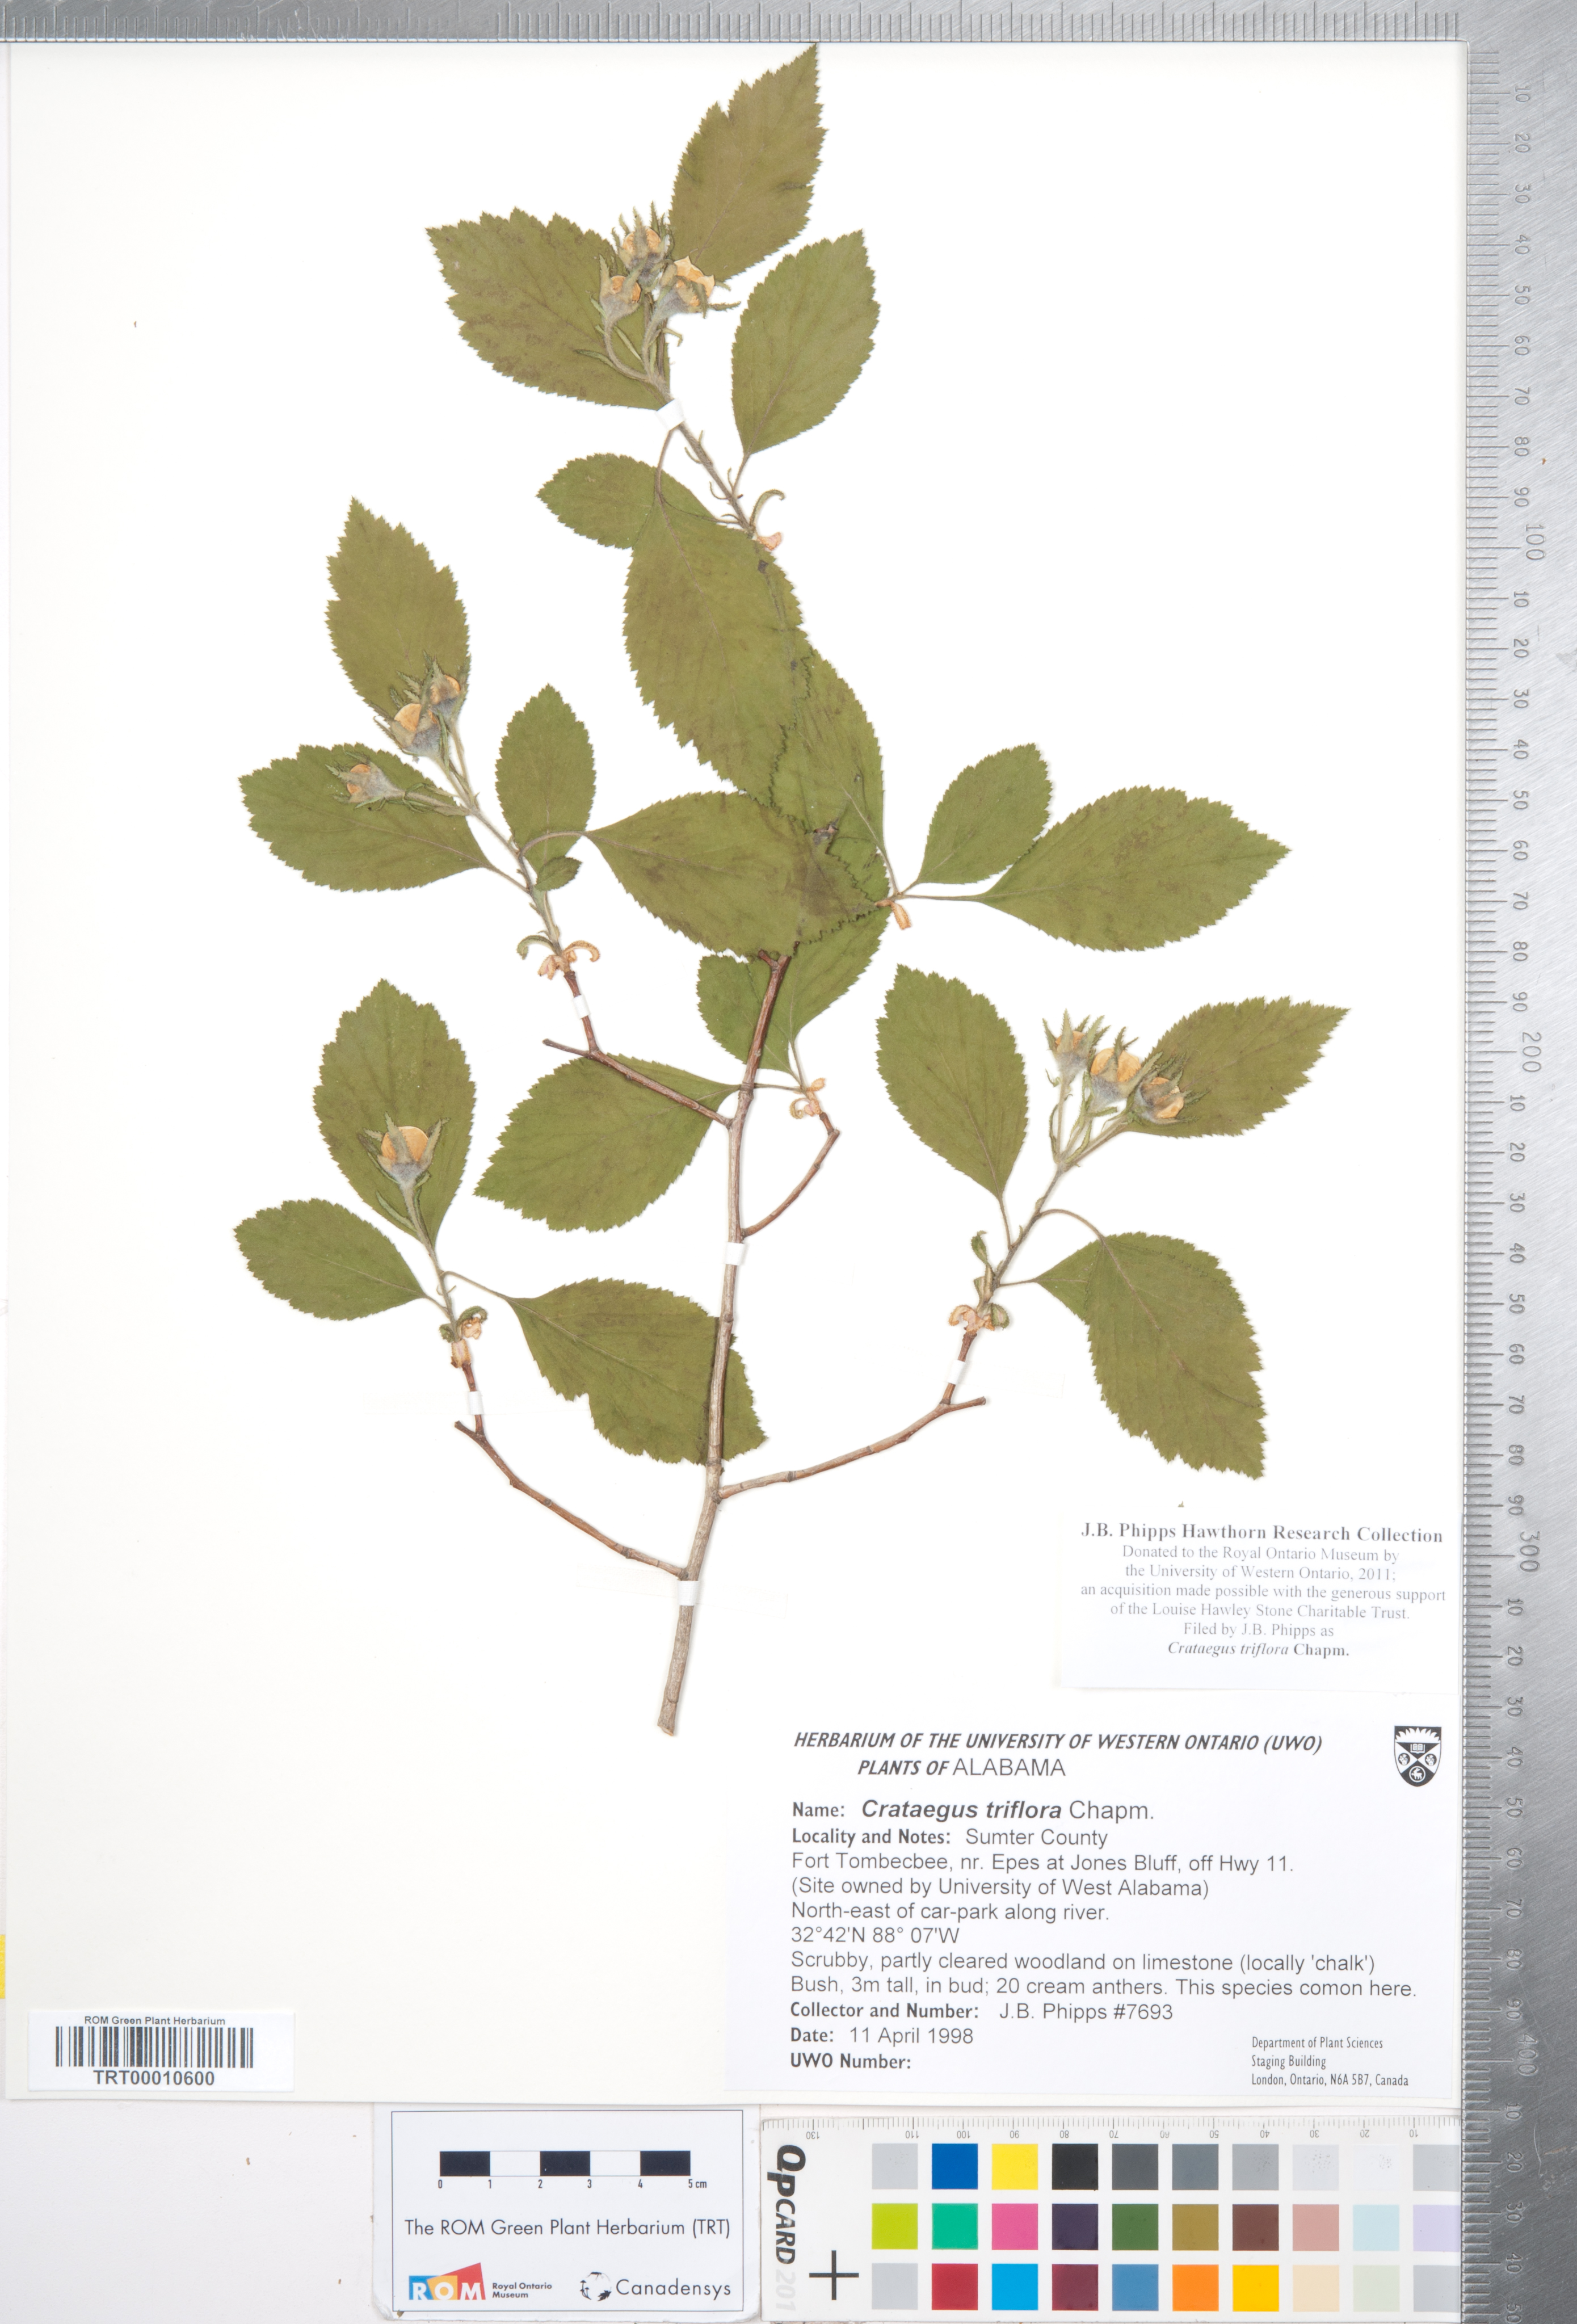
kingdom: Plantae
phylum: Tracheophyta
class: Magnoliopsida
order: Rosales
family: Rosaceae
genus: Crataegus
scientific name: Crataegus triflora
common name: Three-flower hawthorn
